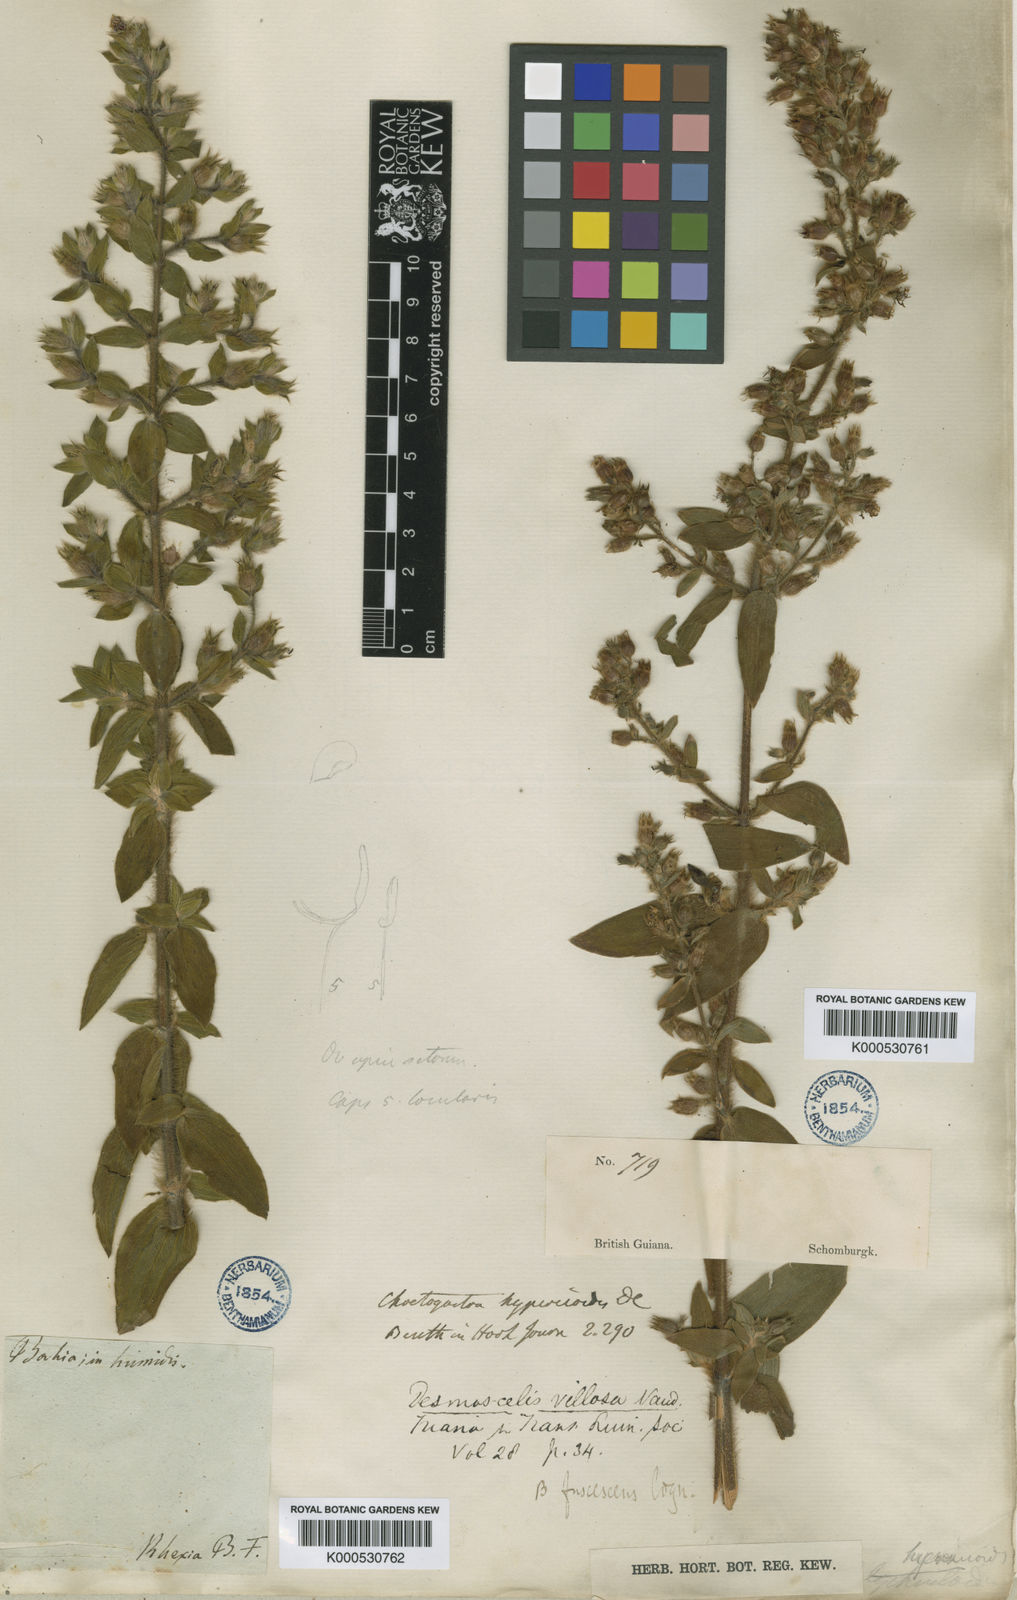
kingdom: Plantae
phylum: Tracheophyta
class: Magnoliopsida
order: Myrtales
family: Melastomataceae
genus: Desmoscelis
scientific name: Desmoscelis villosa
